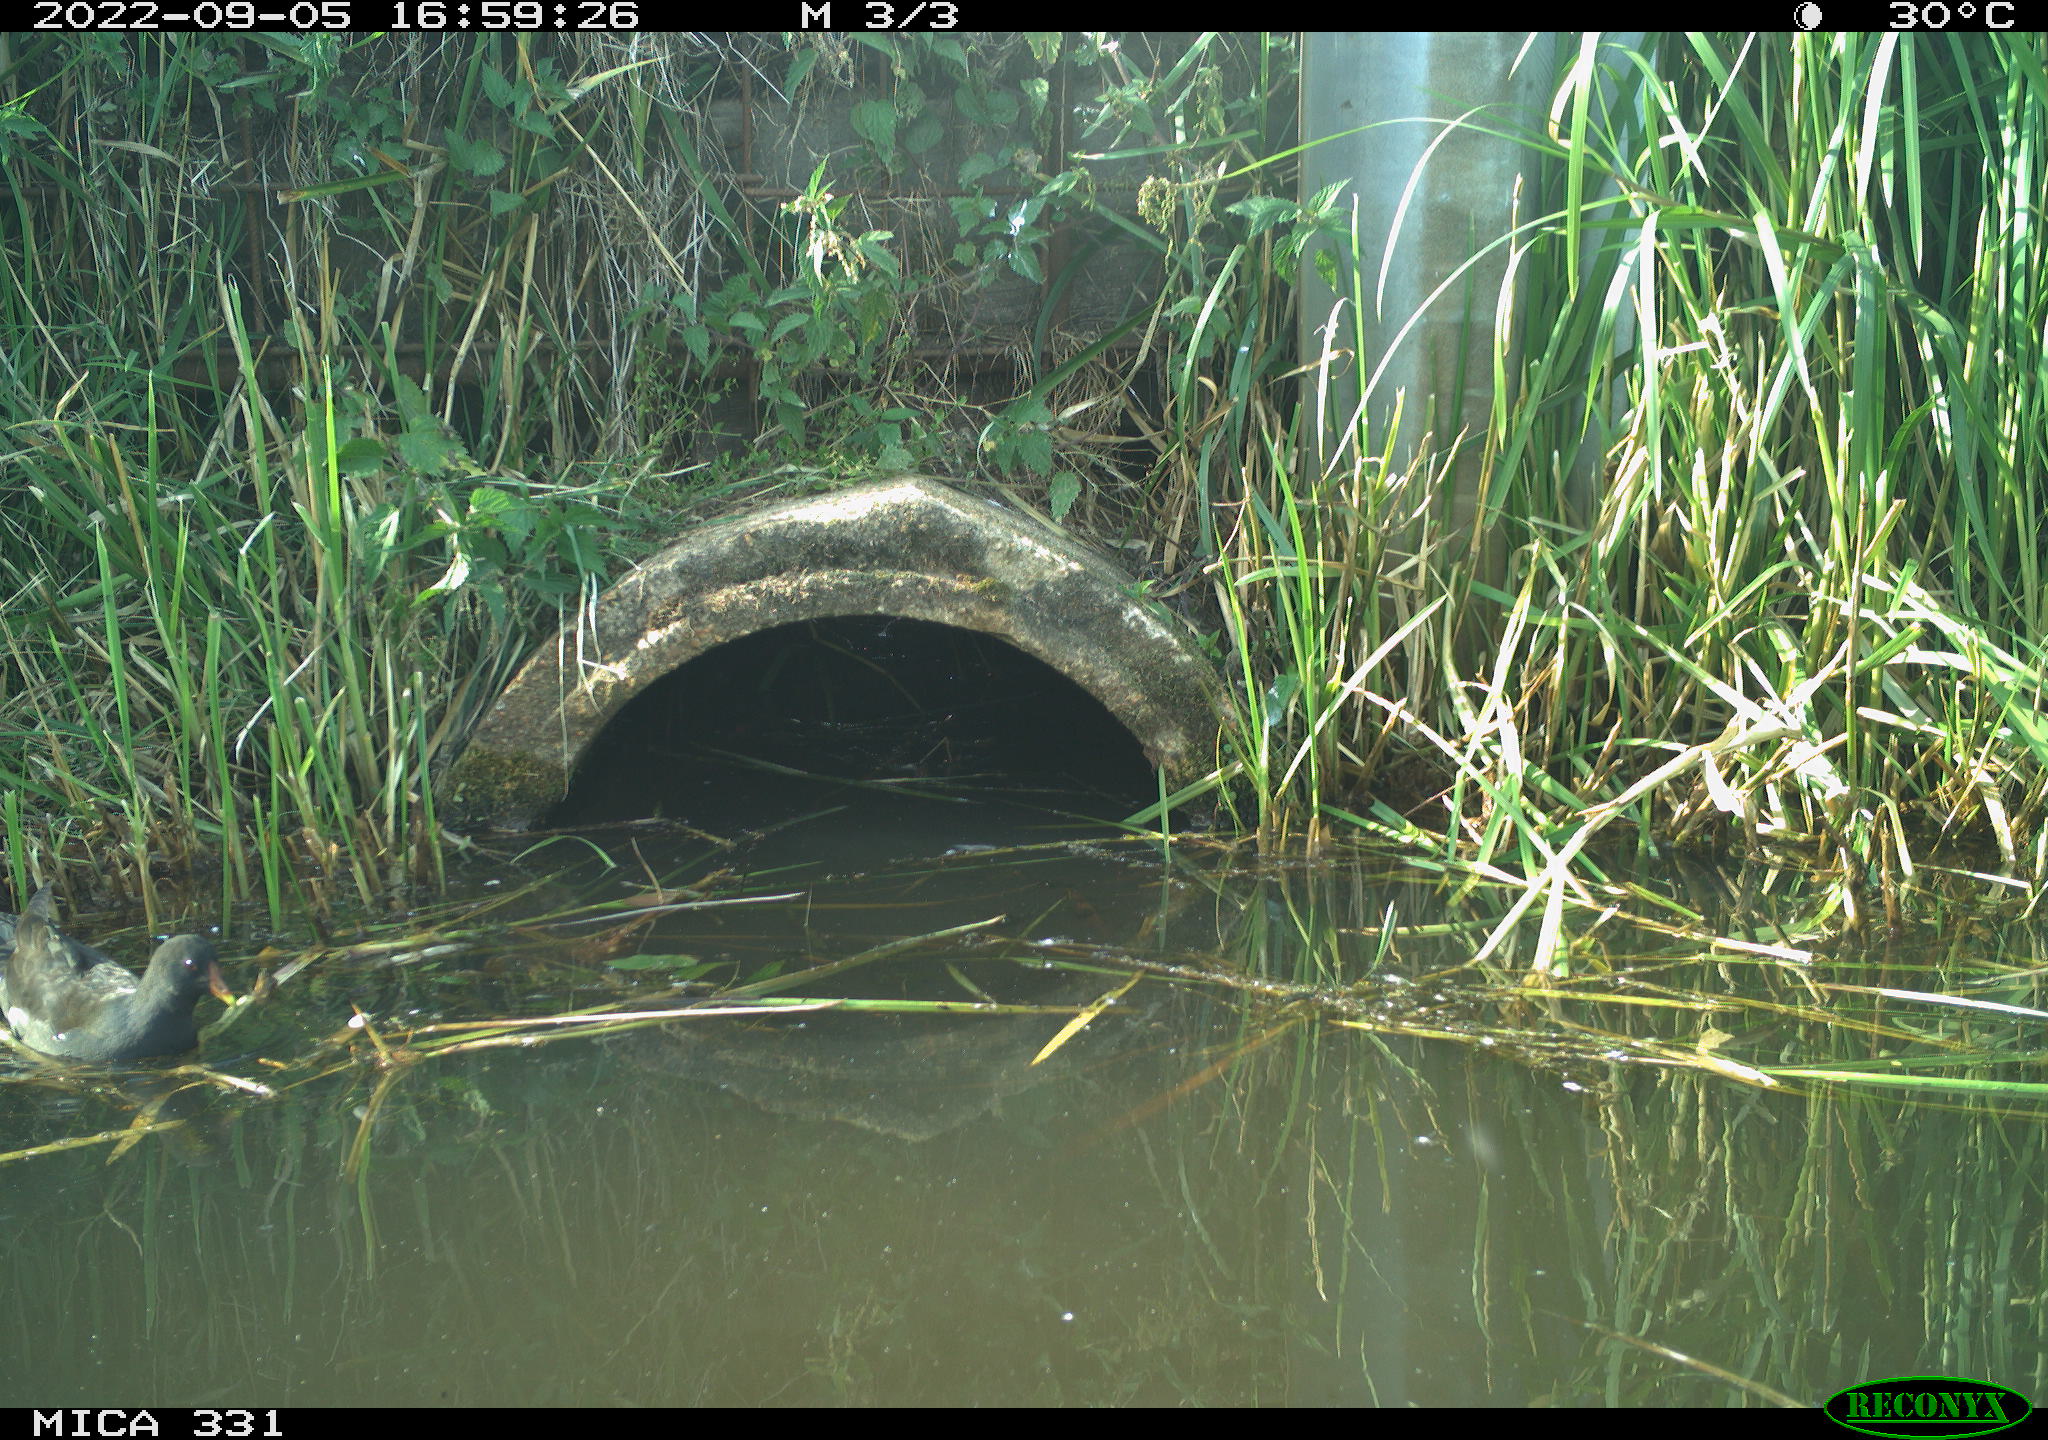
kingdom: Animalia
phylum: Chordata
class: Aves
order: Gruiformes
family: Rallidae
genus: Gallinula
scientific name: Gallinula chloropus
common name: Common moorhen
